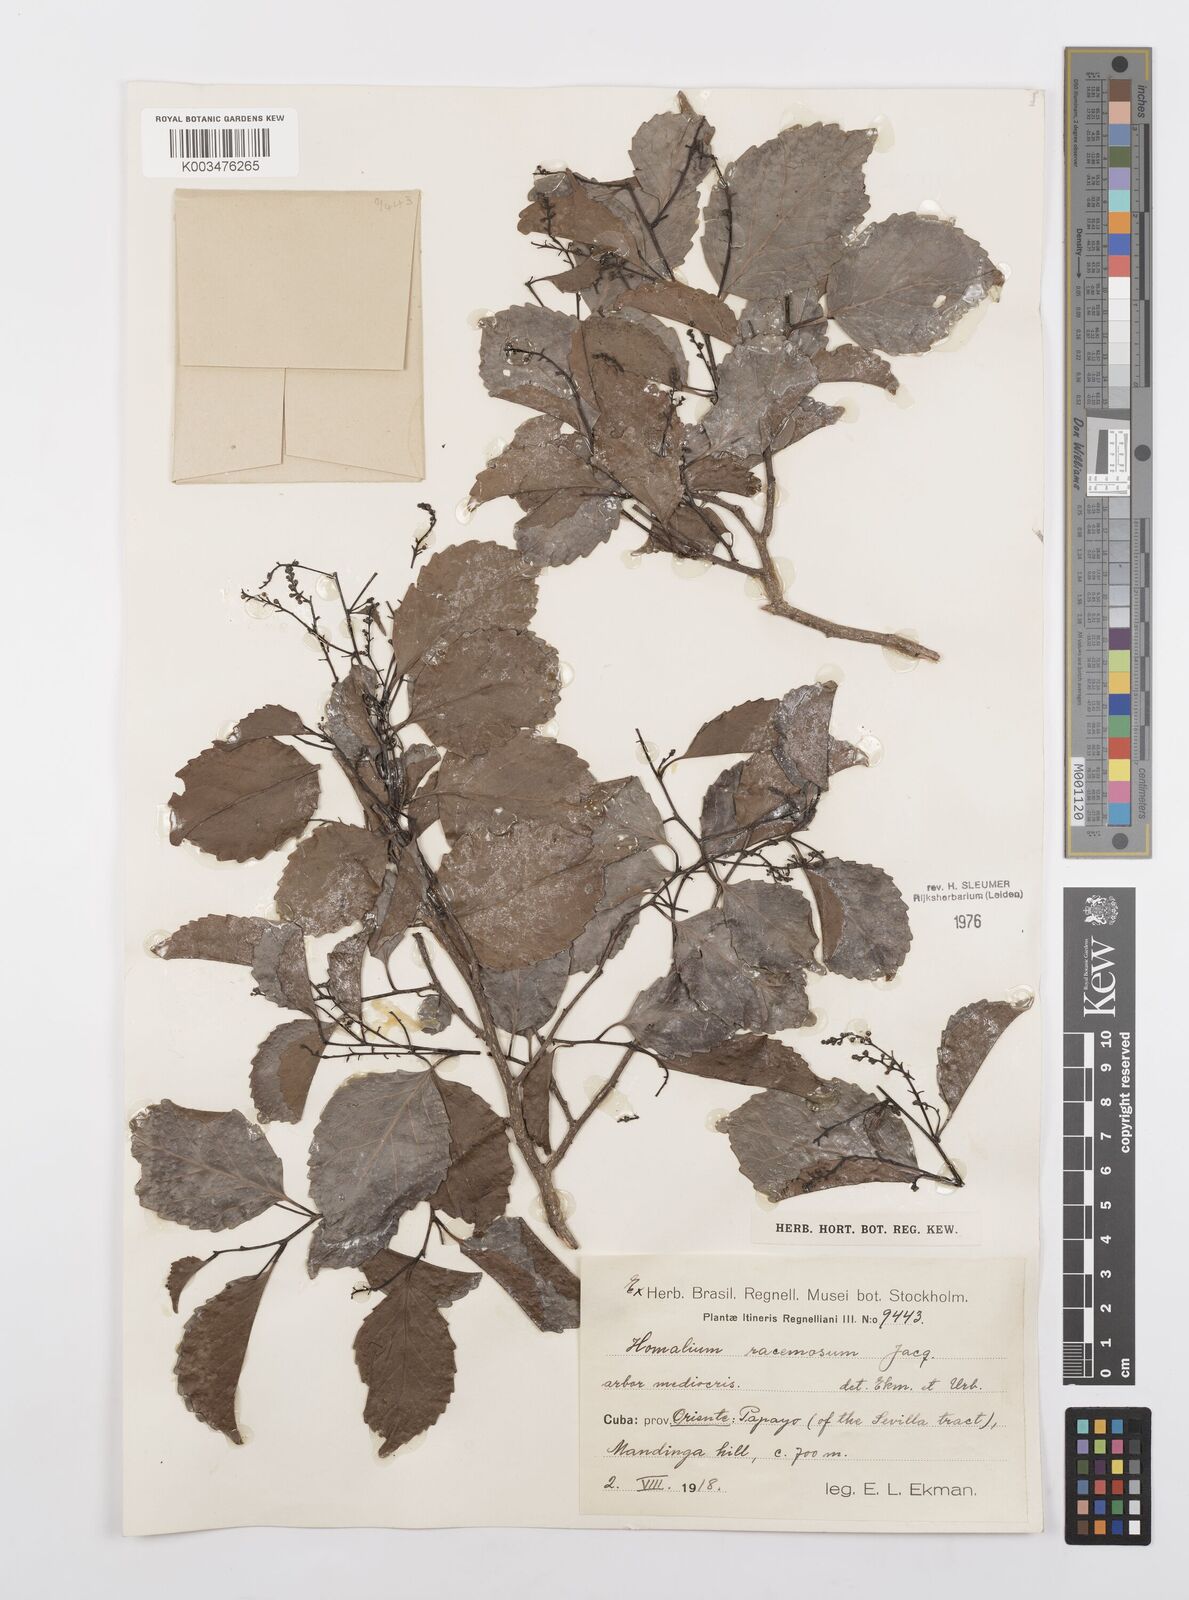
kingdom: Plantae
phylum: Tracheophyta
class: Magnoliopsida
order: Malpighiales
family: Salicaceae
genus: Homalium
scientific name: Homalium racemosum
